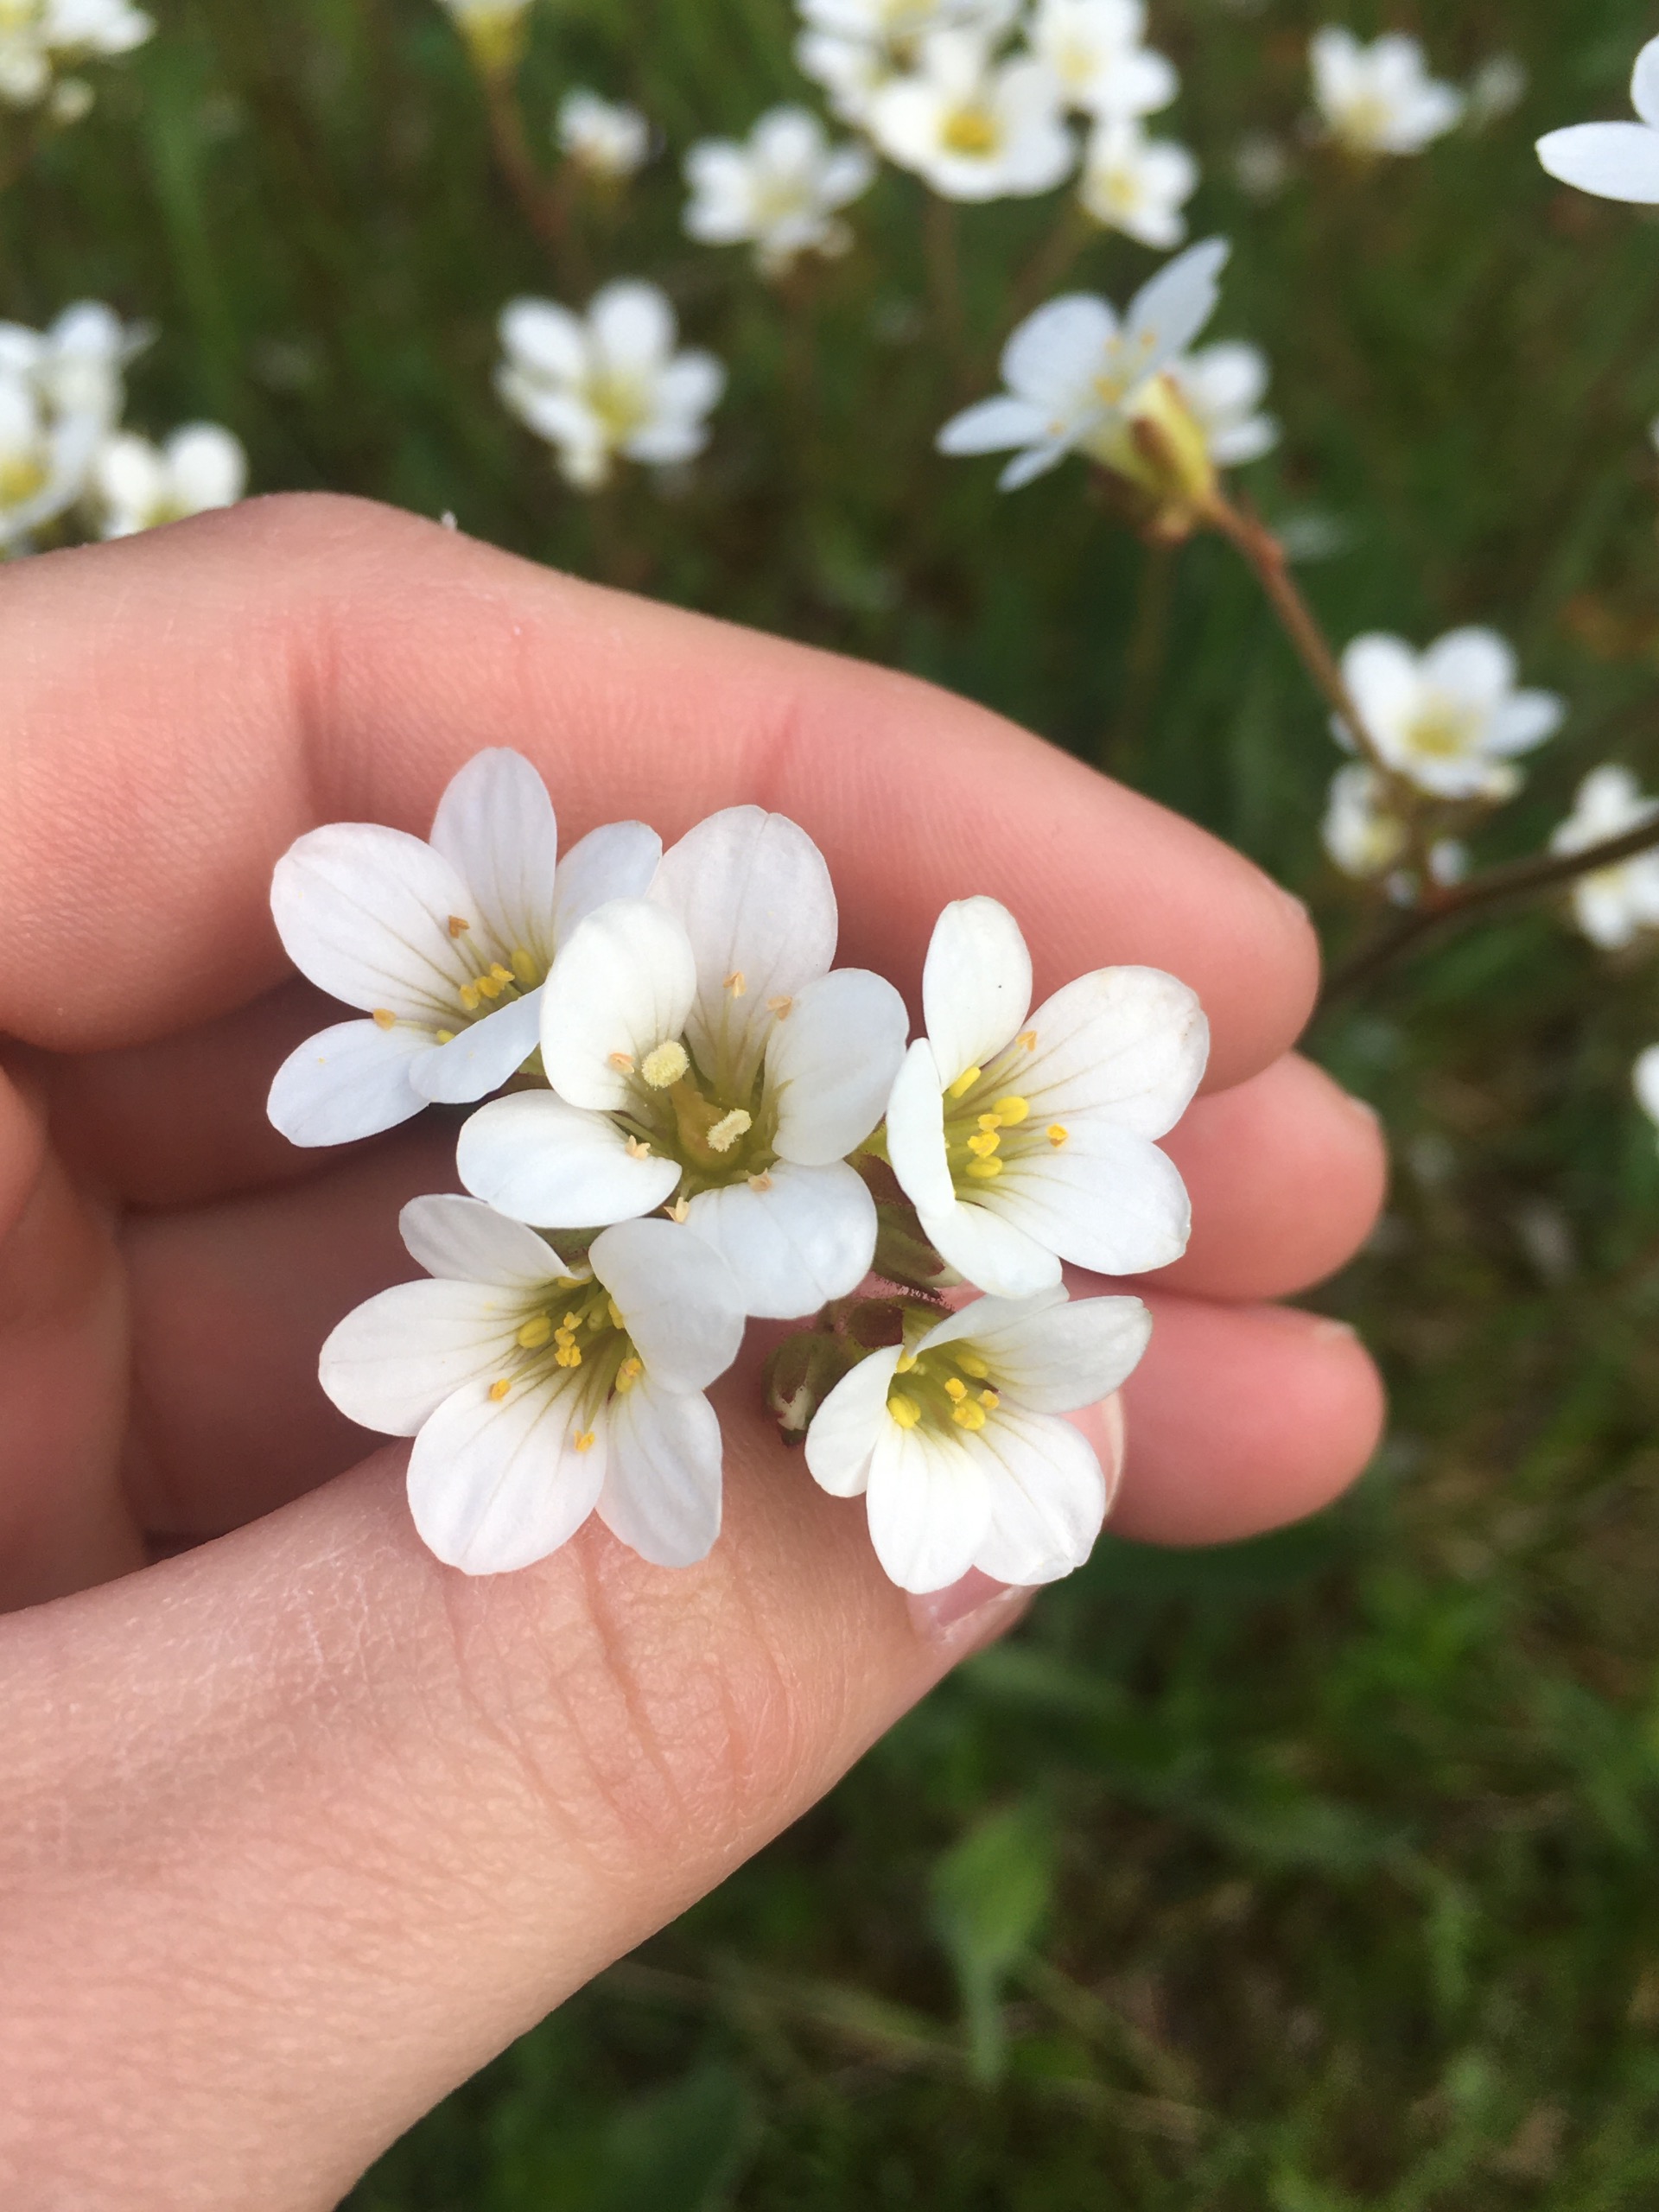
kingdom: Plantae
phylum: Tracheophyta
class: Magnoliopsida
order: Saxifragales
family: Saxifragaceae
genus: Saxifraga
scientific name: Saxifraga granulata
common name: Kornet stenbræk
